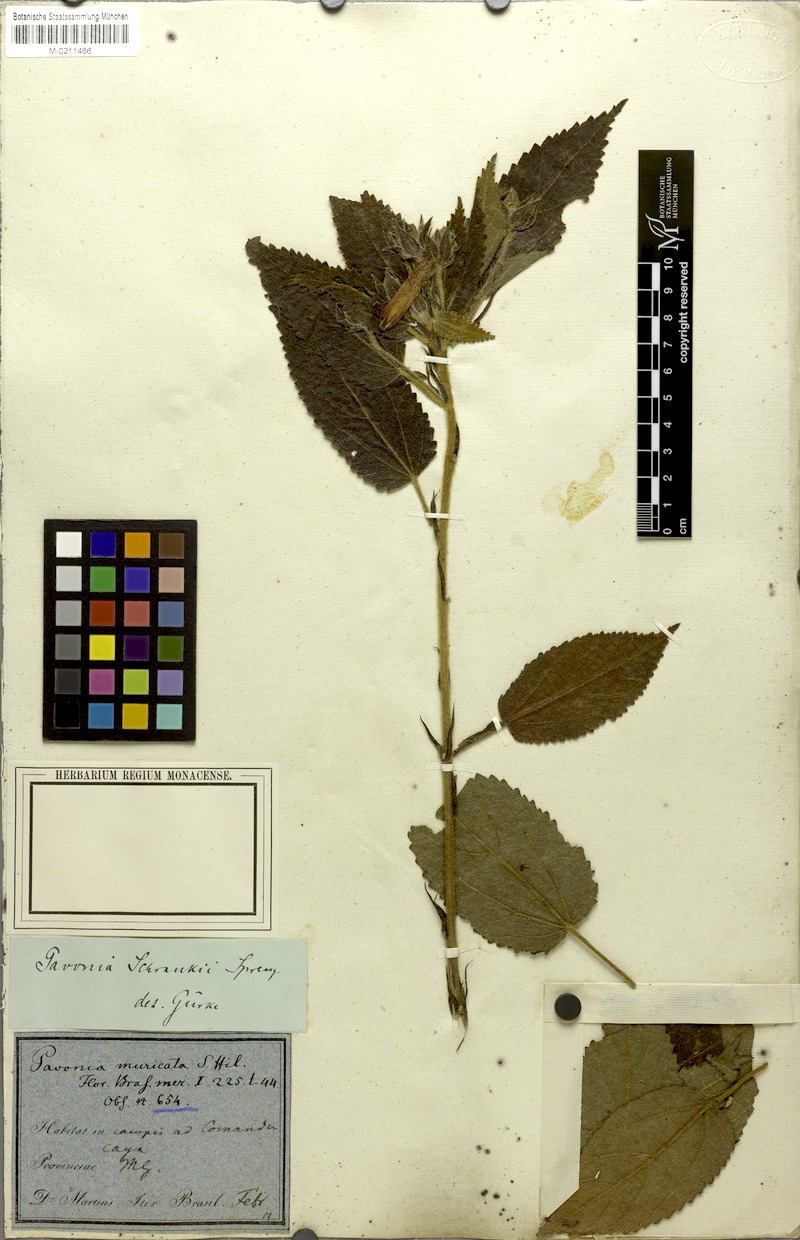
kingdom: Plantae
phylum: Tracheophyta
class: Magnoliopsida
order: Malvales
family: Malvaceae
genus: Pavonia
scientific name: Pavonia schrankii
